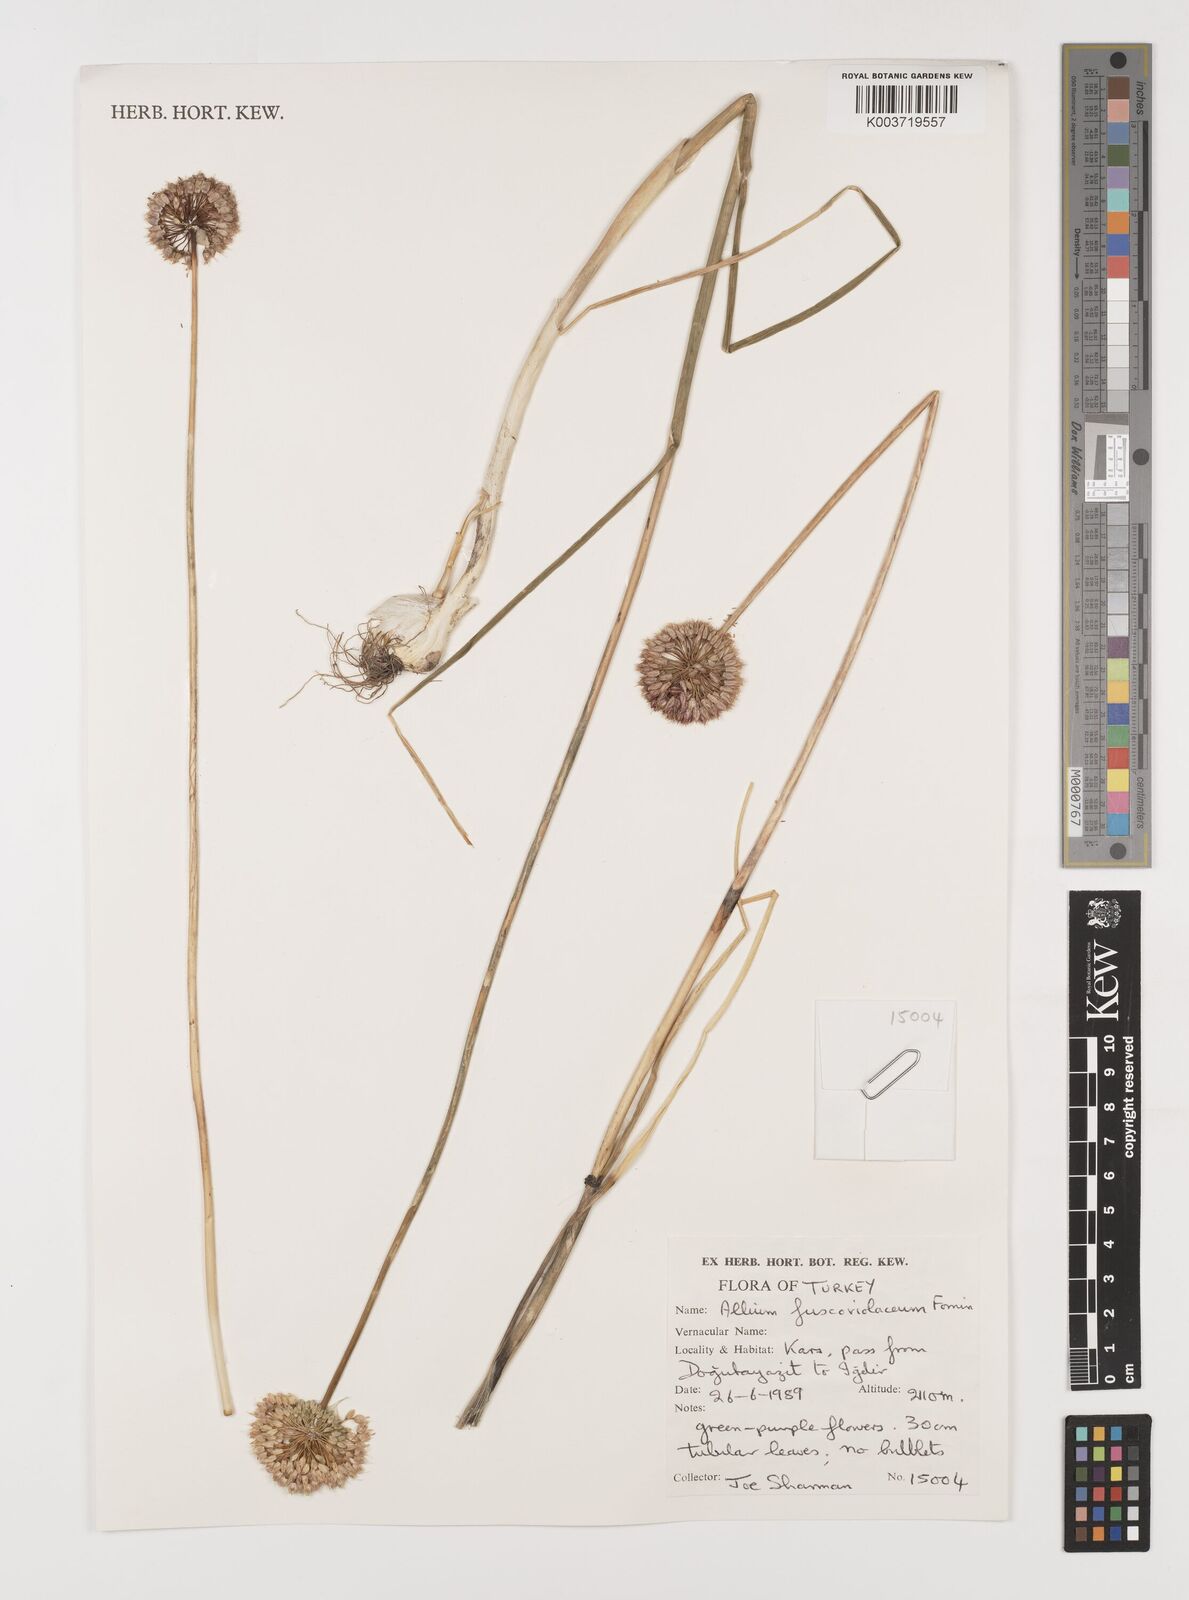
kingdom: Plantae
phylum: Tracheophyta
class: Liliopsida
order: Asparagales
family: Amaryllidaceae
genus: Allium
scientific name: Allium fuscoviolaceum
